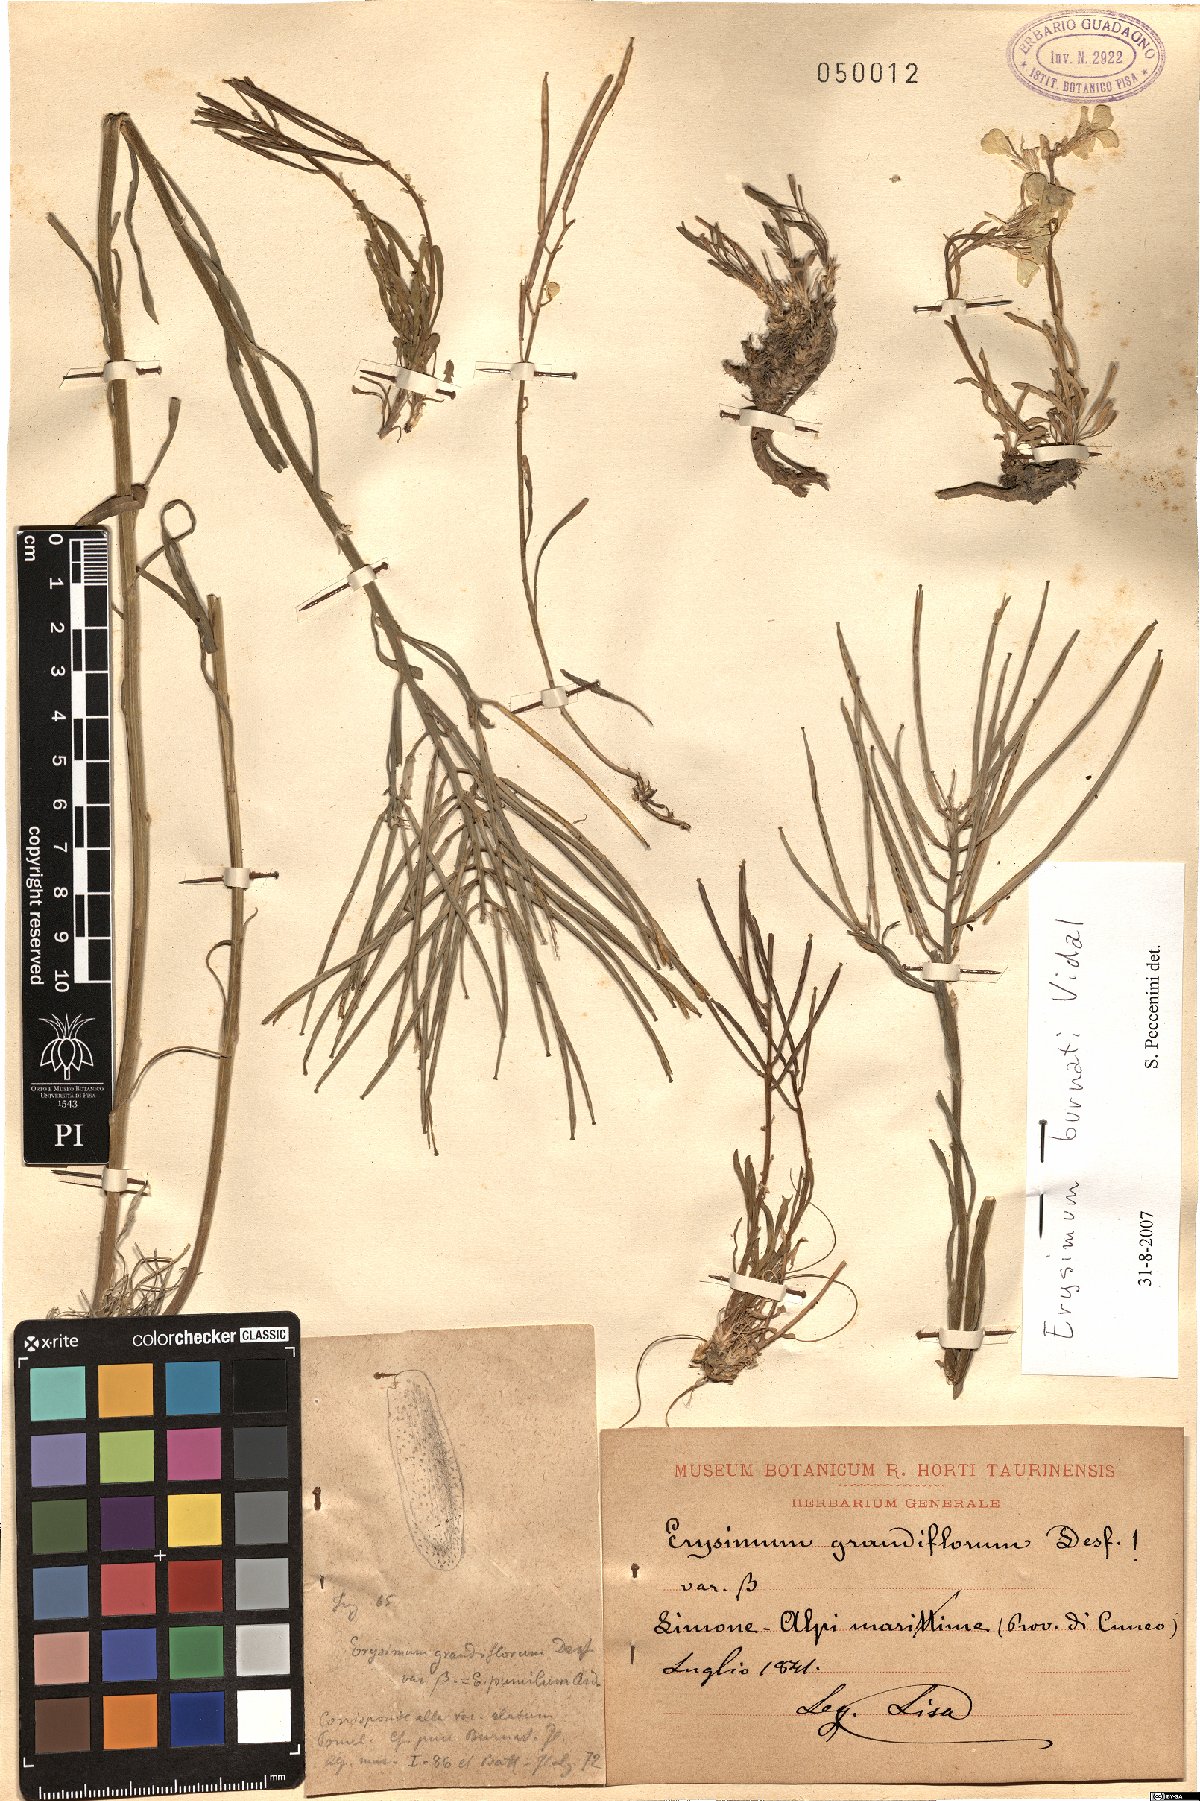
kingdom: Plantae
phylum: Tracheophyta
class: Magnoliopsida
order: Brassicales
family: Brassicaceae
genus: Erysimum
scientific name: Erysimum burnatii
